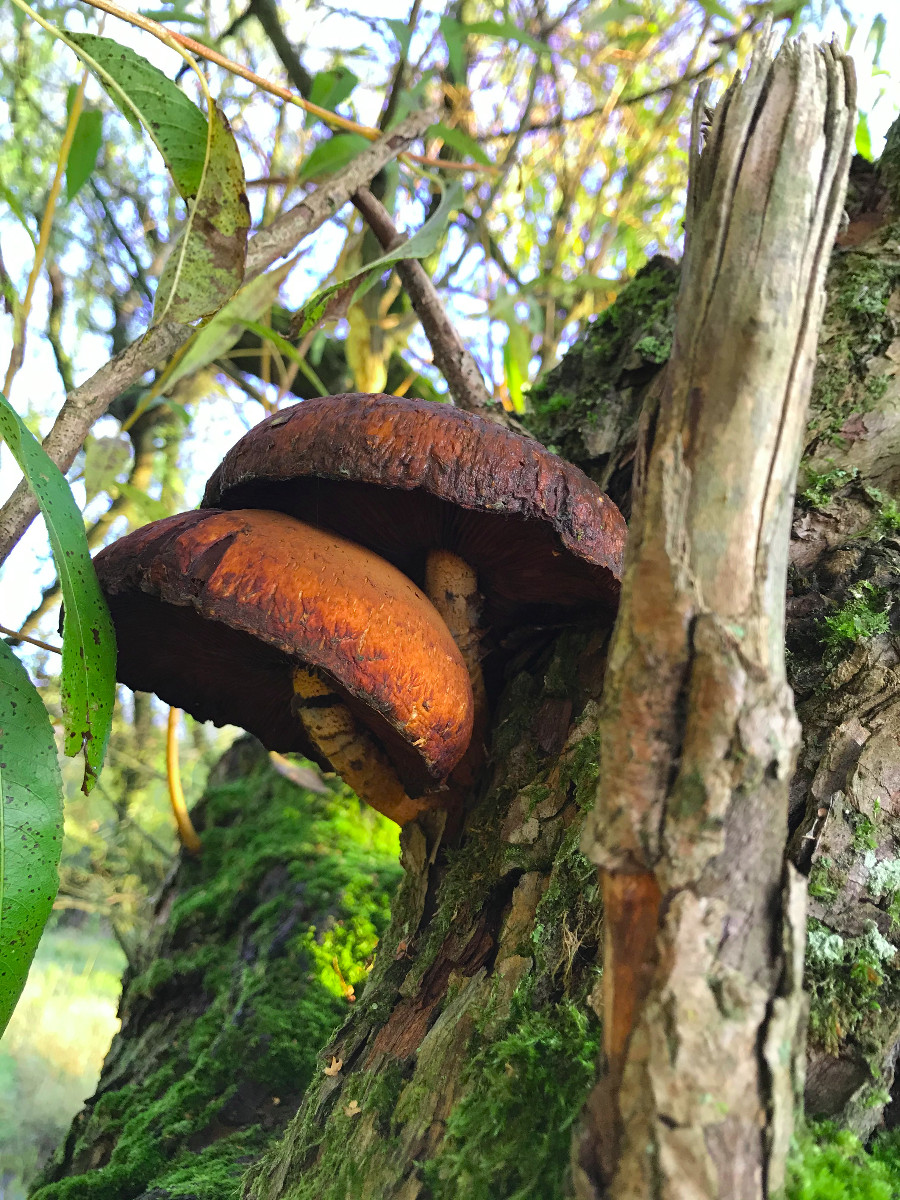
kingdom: Fungi
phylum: Basidiomycota
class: Agaricomycetes
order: Agaricales
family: Strophariaceae
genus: Pholiota
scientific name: Pholiota limonella
